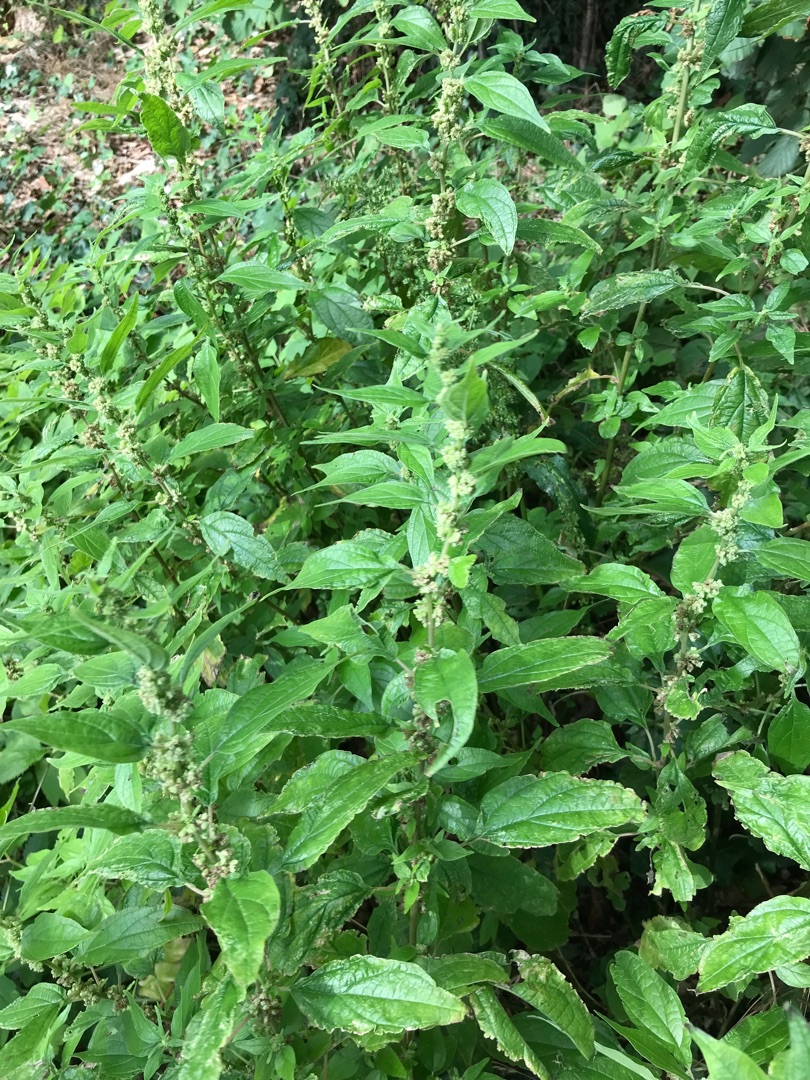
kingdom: Plantae
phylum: Tracheophyta
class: Magnoliopsida
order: Rosales
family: Urticaceae
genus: Parietaria
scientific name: Parietaria officinalis
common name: Almindelig springknap
